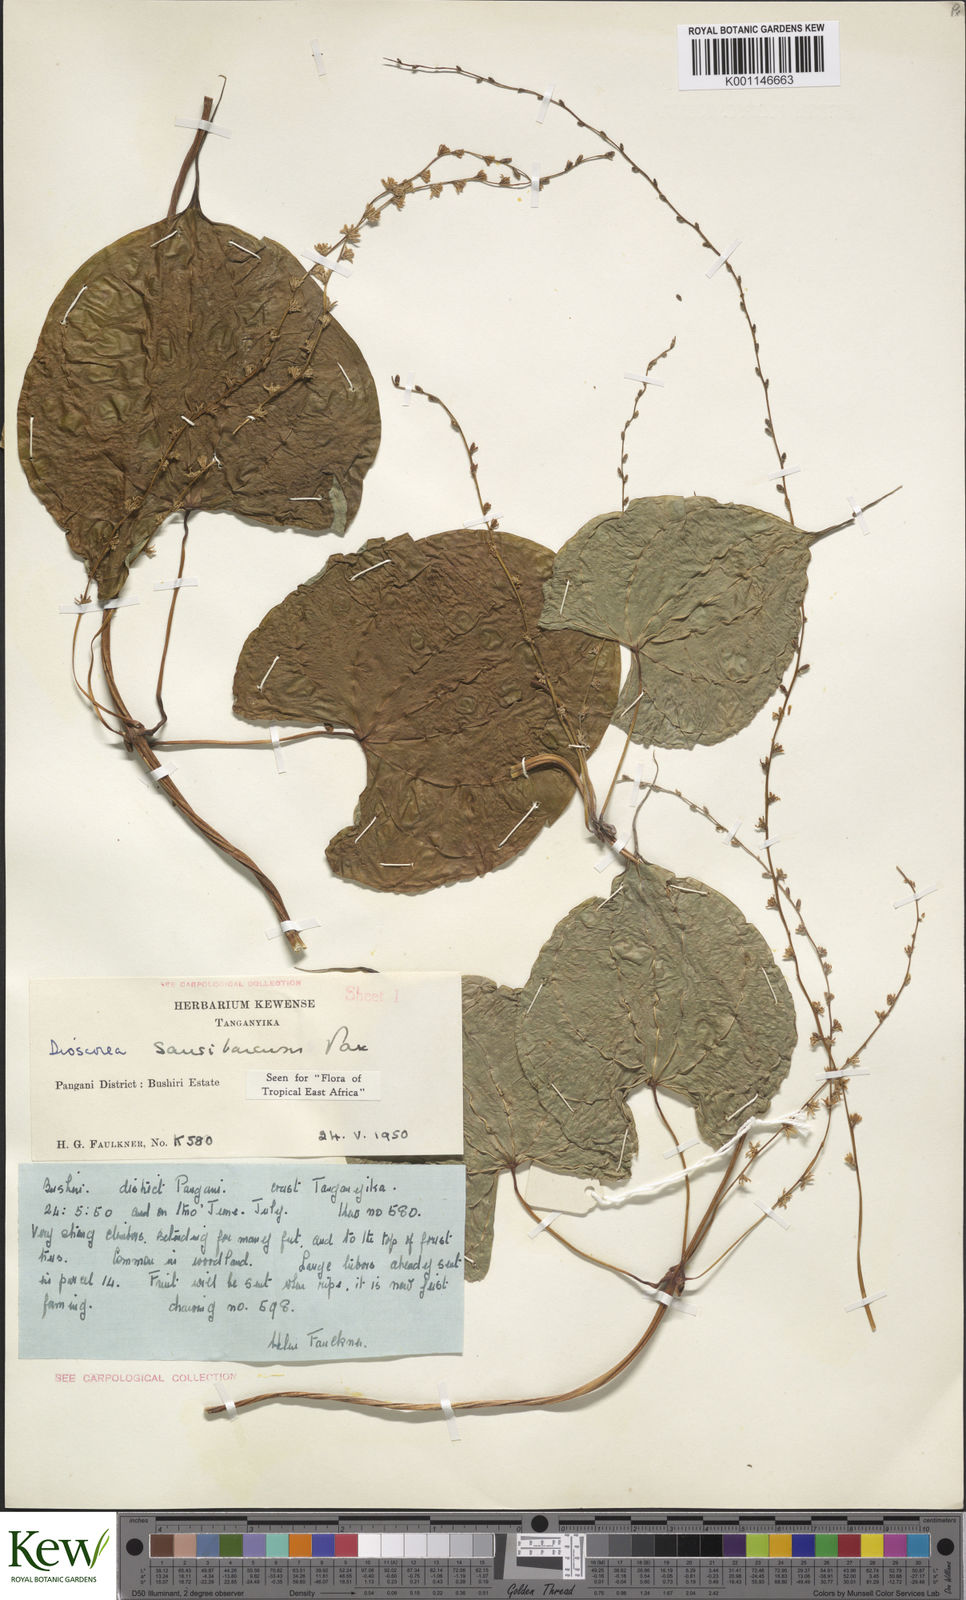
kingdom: Plantae
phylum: Tracheophyta
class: Liliopsida
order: Dioscoreales
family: Dioscoreaceae
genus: Dioscorea
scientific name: Dioscorea sansibarensis
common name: Zanzibar yam
